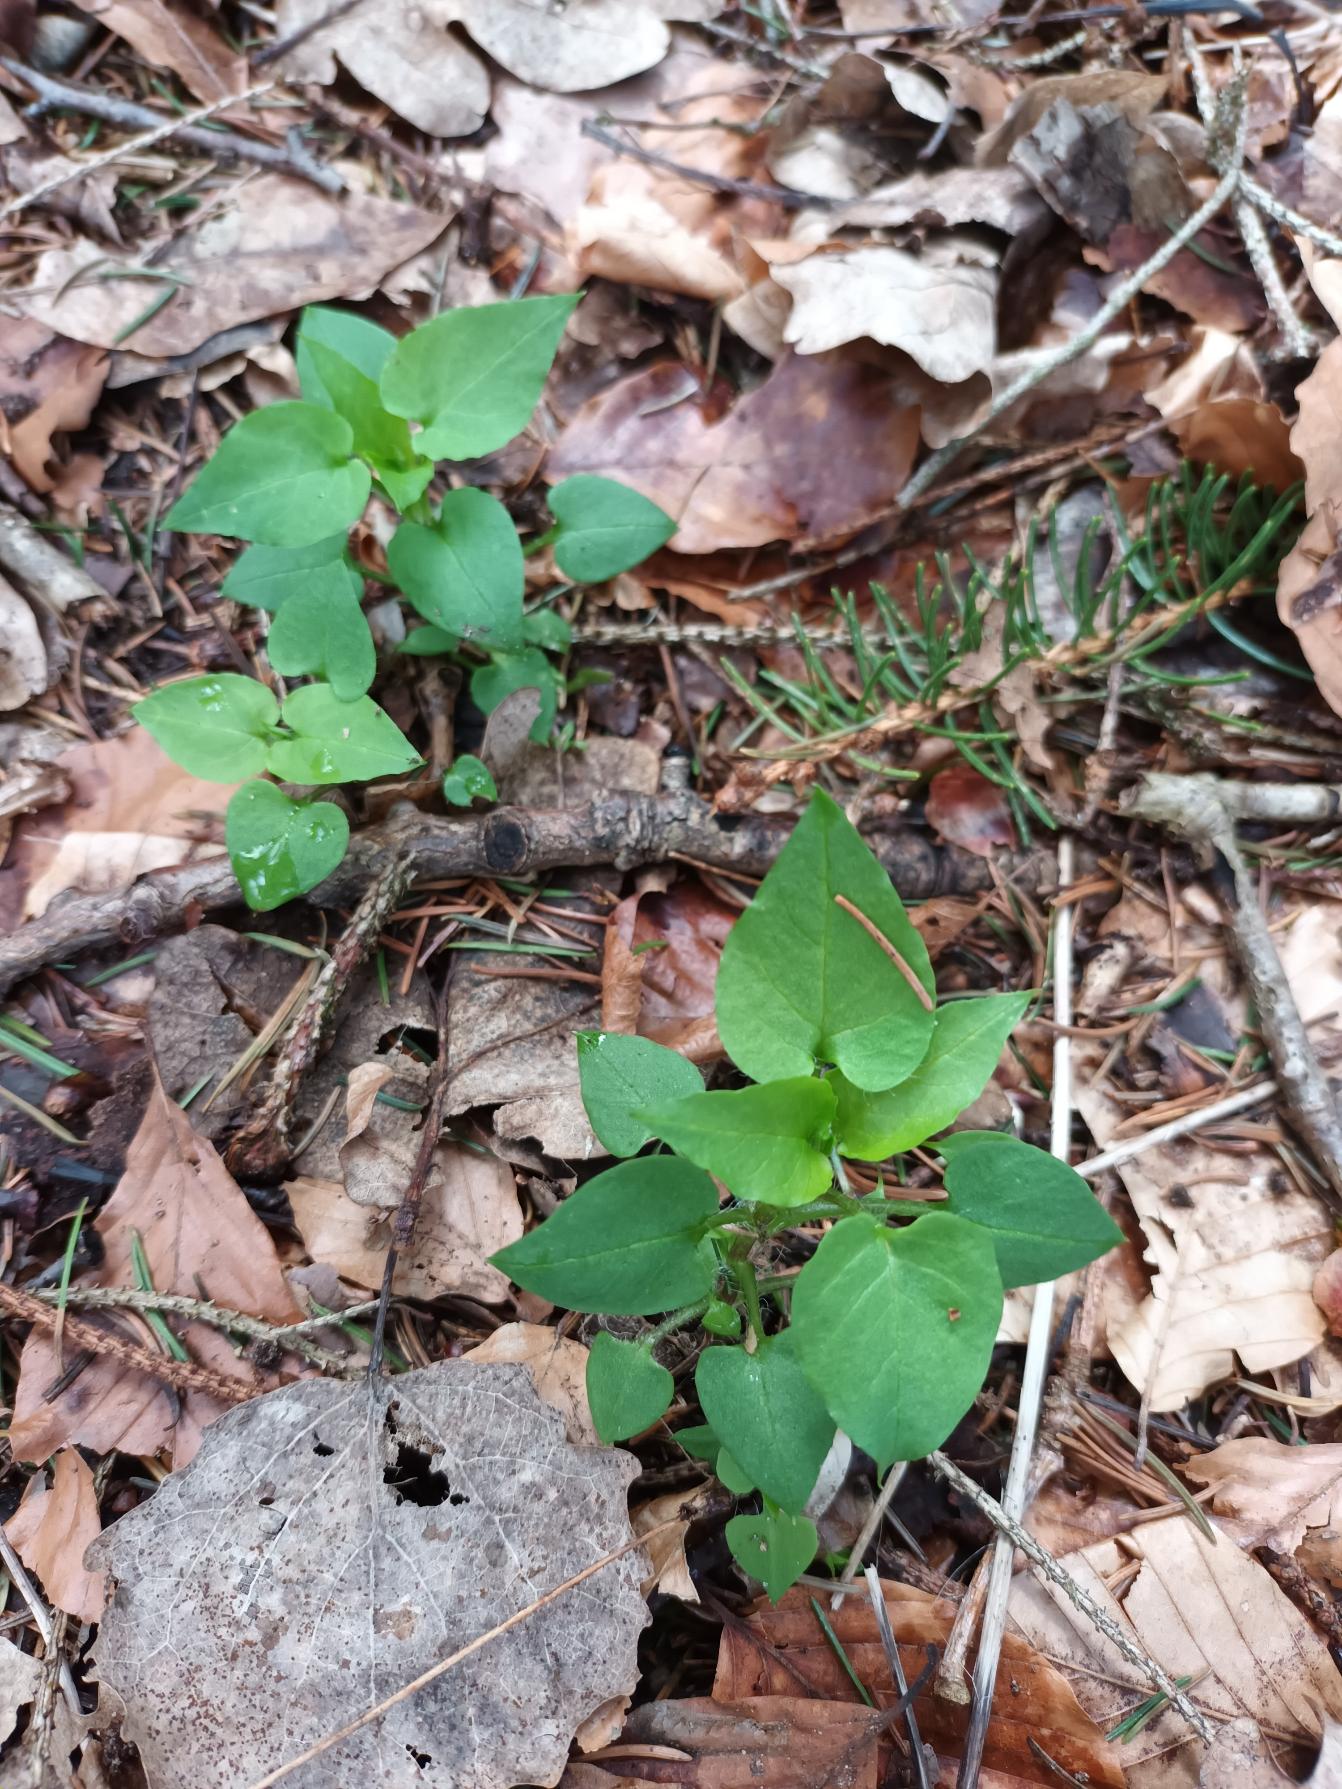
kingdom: Plantae
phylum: Tracheophyta
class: Magnoliopsida
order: Caryophyllales
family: Caryophyllaceae
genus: Stellaria
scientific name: Stellaria nemorum
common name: Lund-fladstjerne
